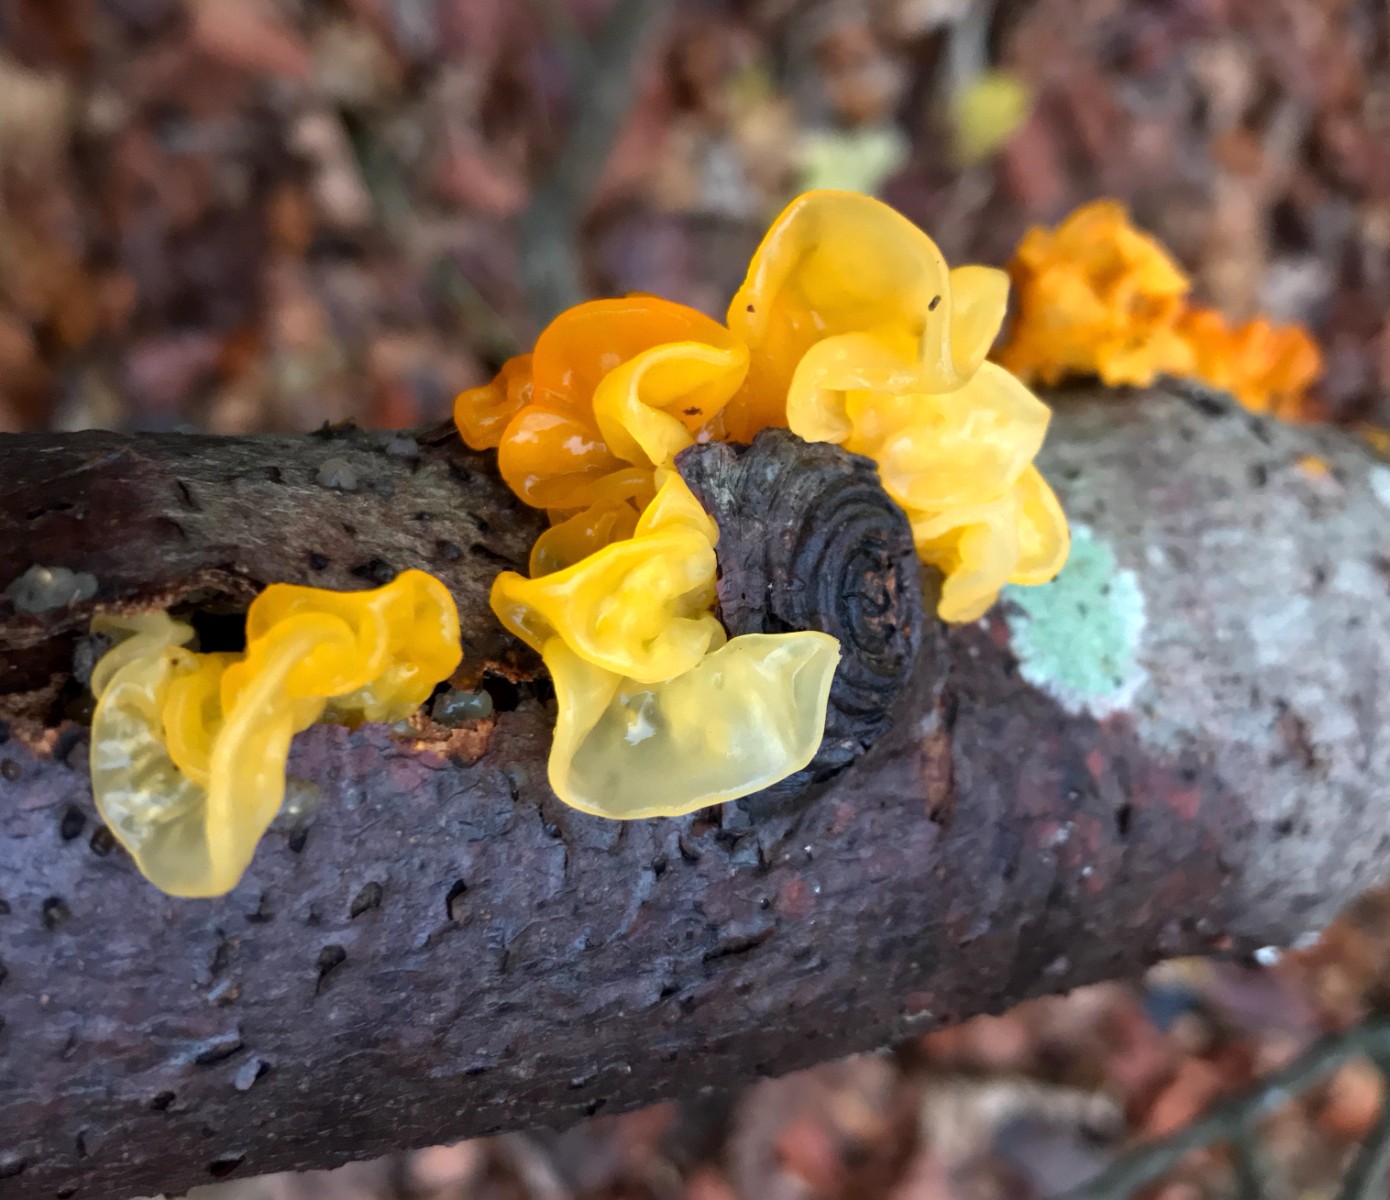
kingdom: Fungi
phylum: Basidiomycota
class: Tremellomycetes
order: Tremellales
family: Tremellaceae
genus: Tremella
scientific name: Tremella mesenterica
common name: gul bævresvamp
